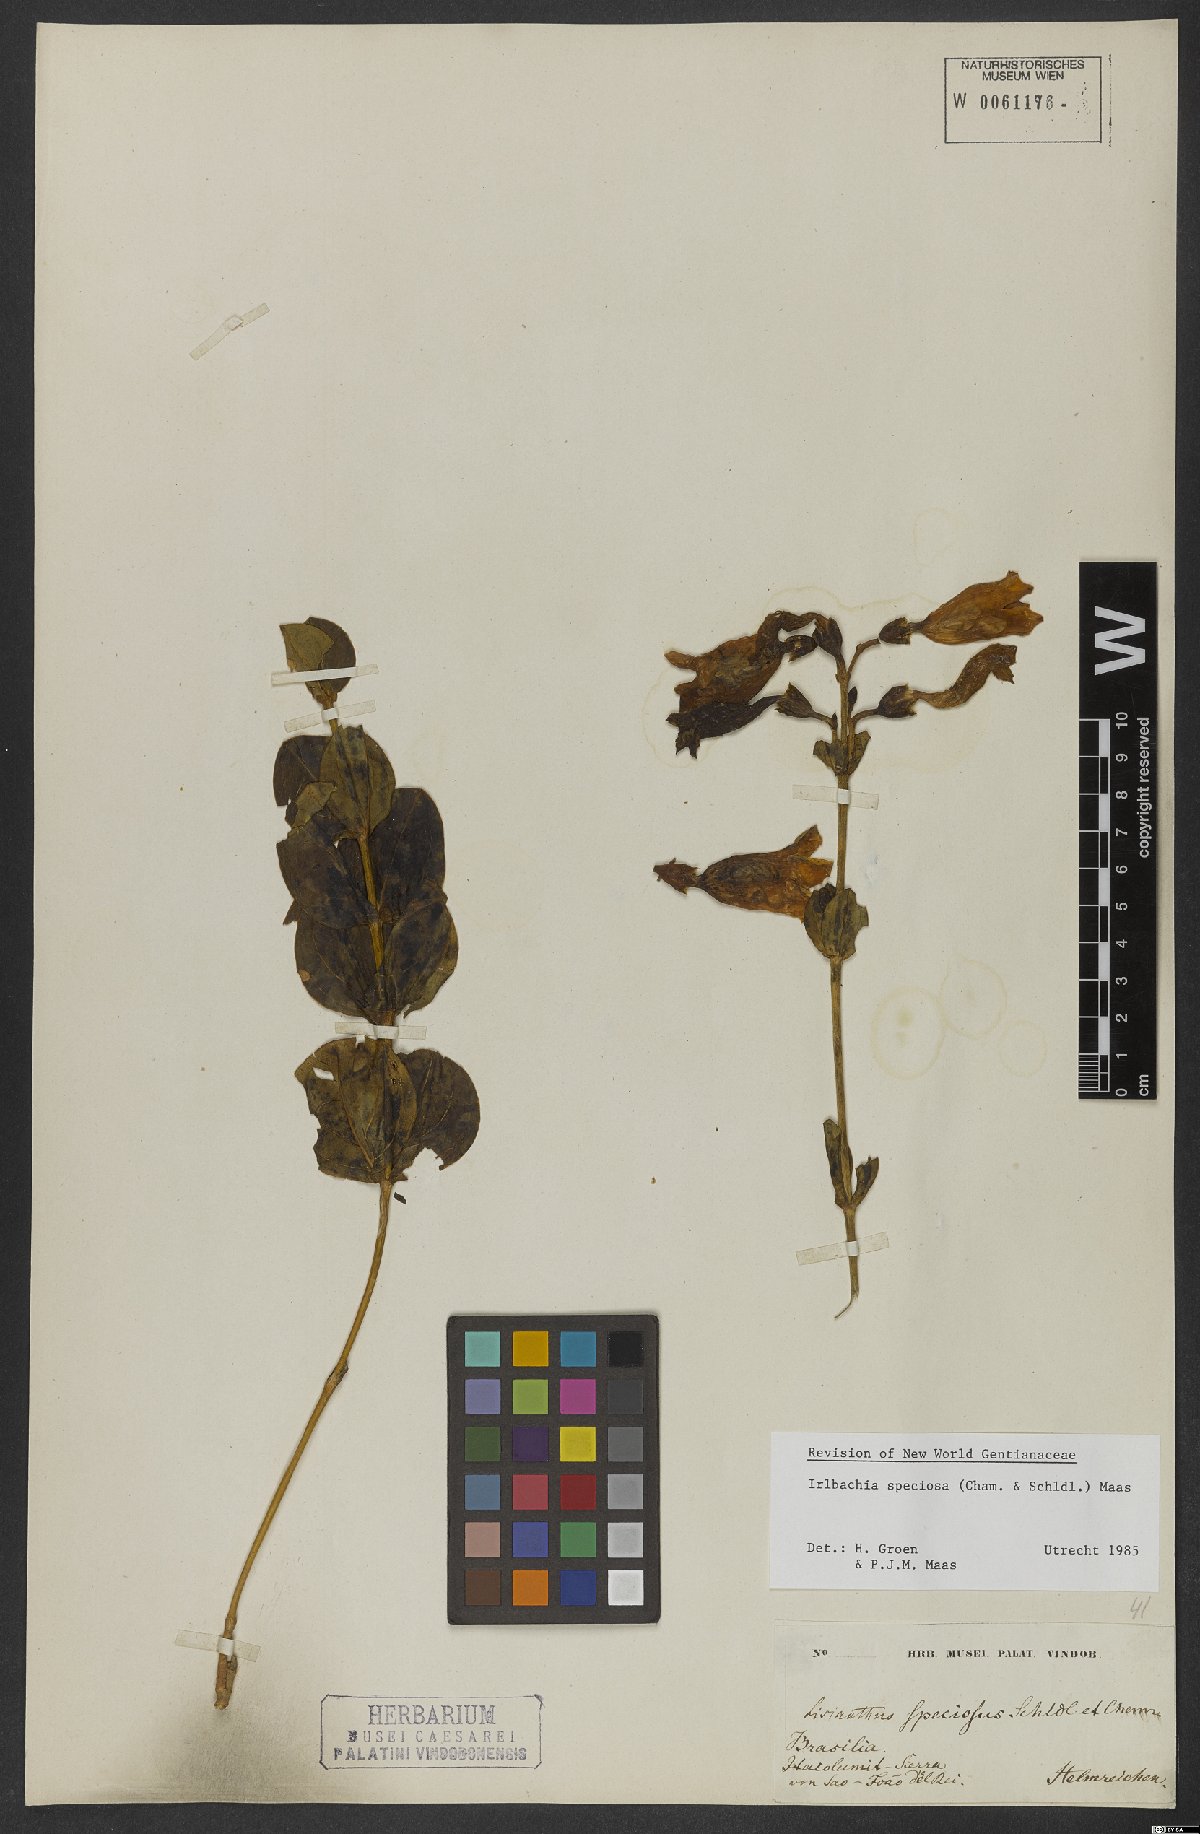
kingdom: Plantae
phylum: Tracheophyta
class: Magnoliopsida
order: Gentianales
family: Gentianaceae
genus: Calolisianthus
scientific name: Calolisianthus speciosus
